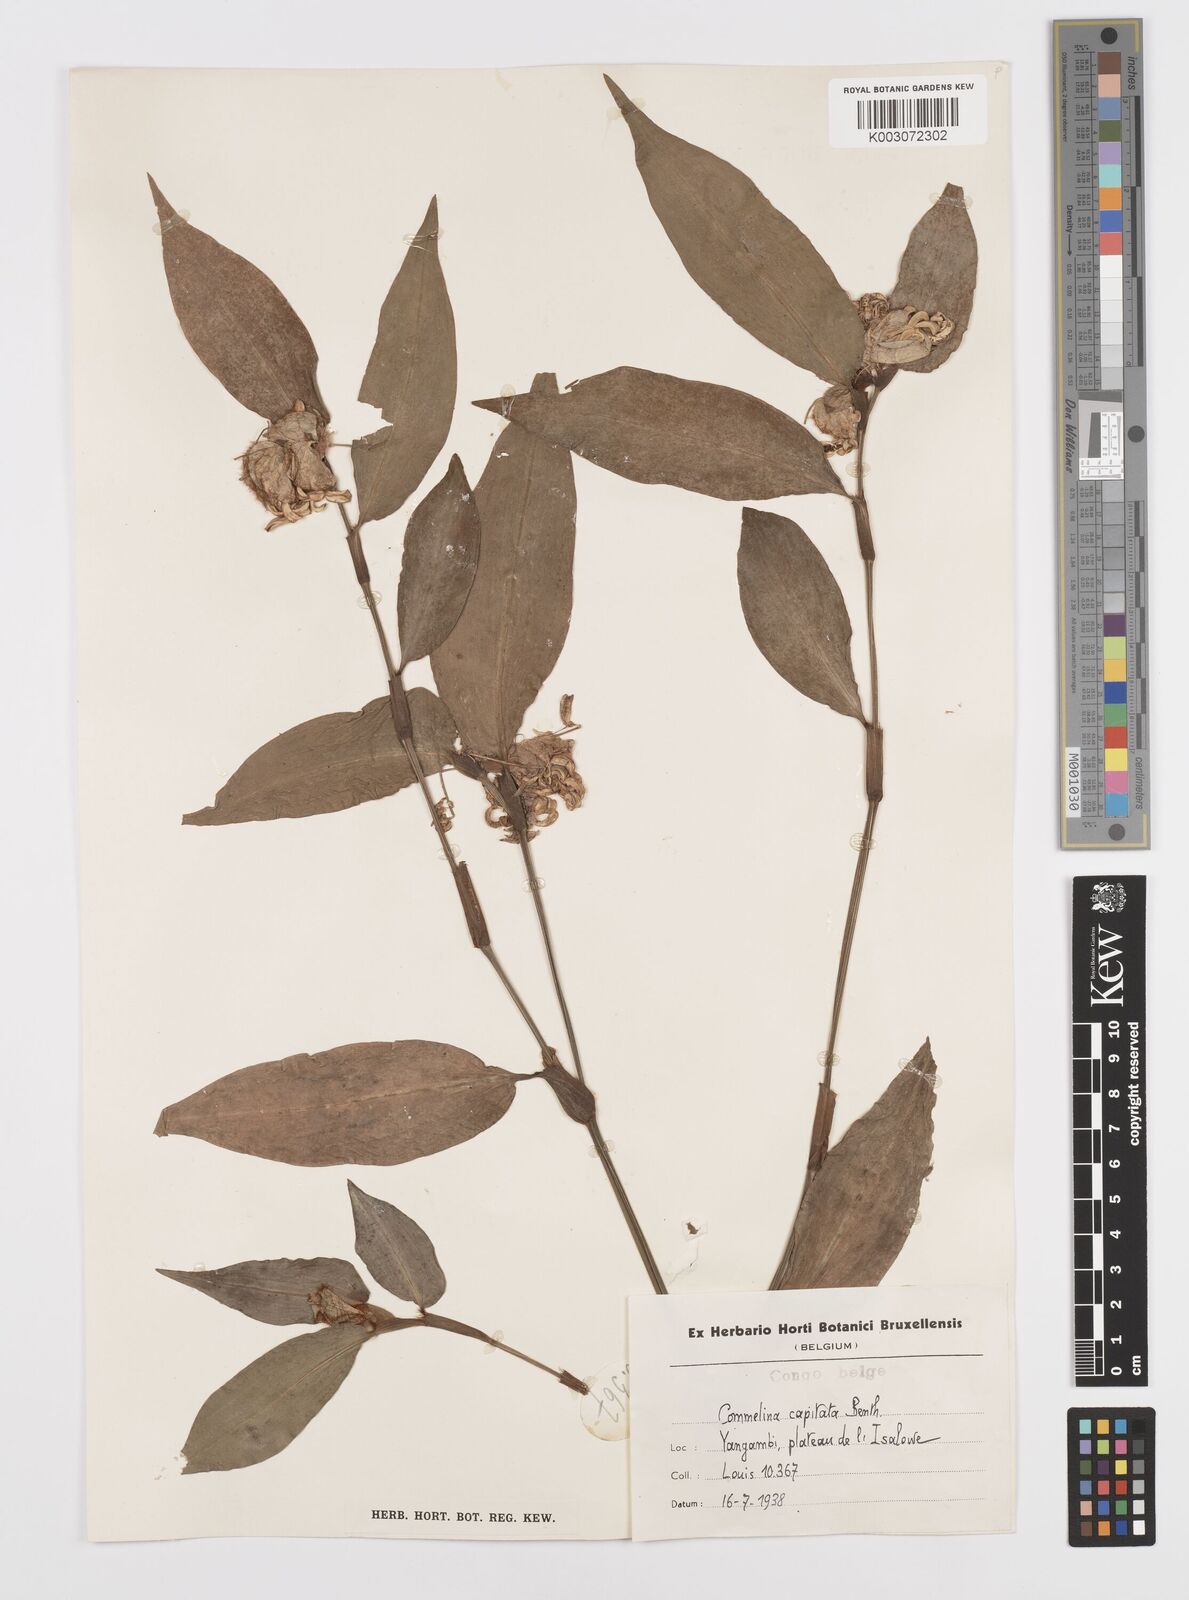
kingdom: Plantae
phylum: Tracheophyta
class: Liliopsida
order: Commelinales
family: Commelinaceae
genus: Commelina
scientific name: Commelina capitata
